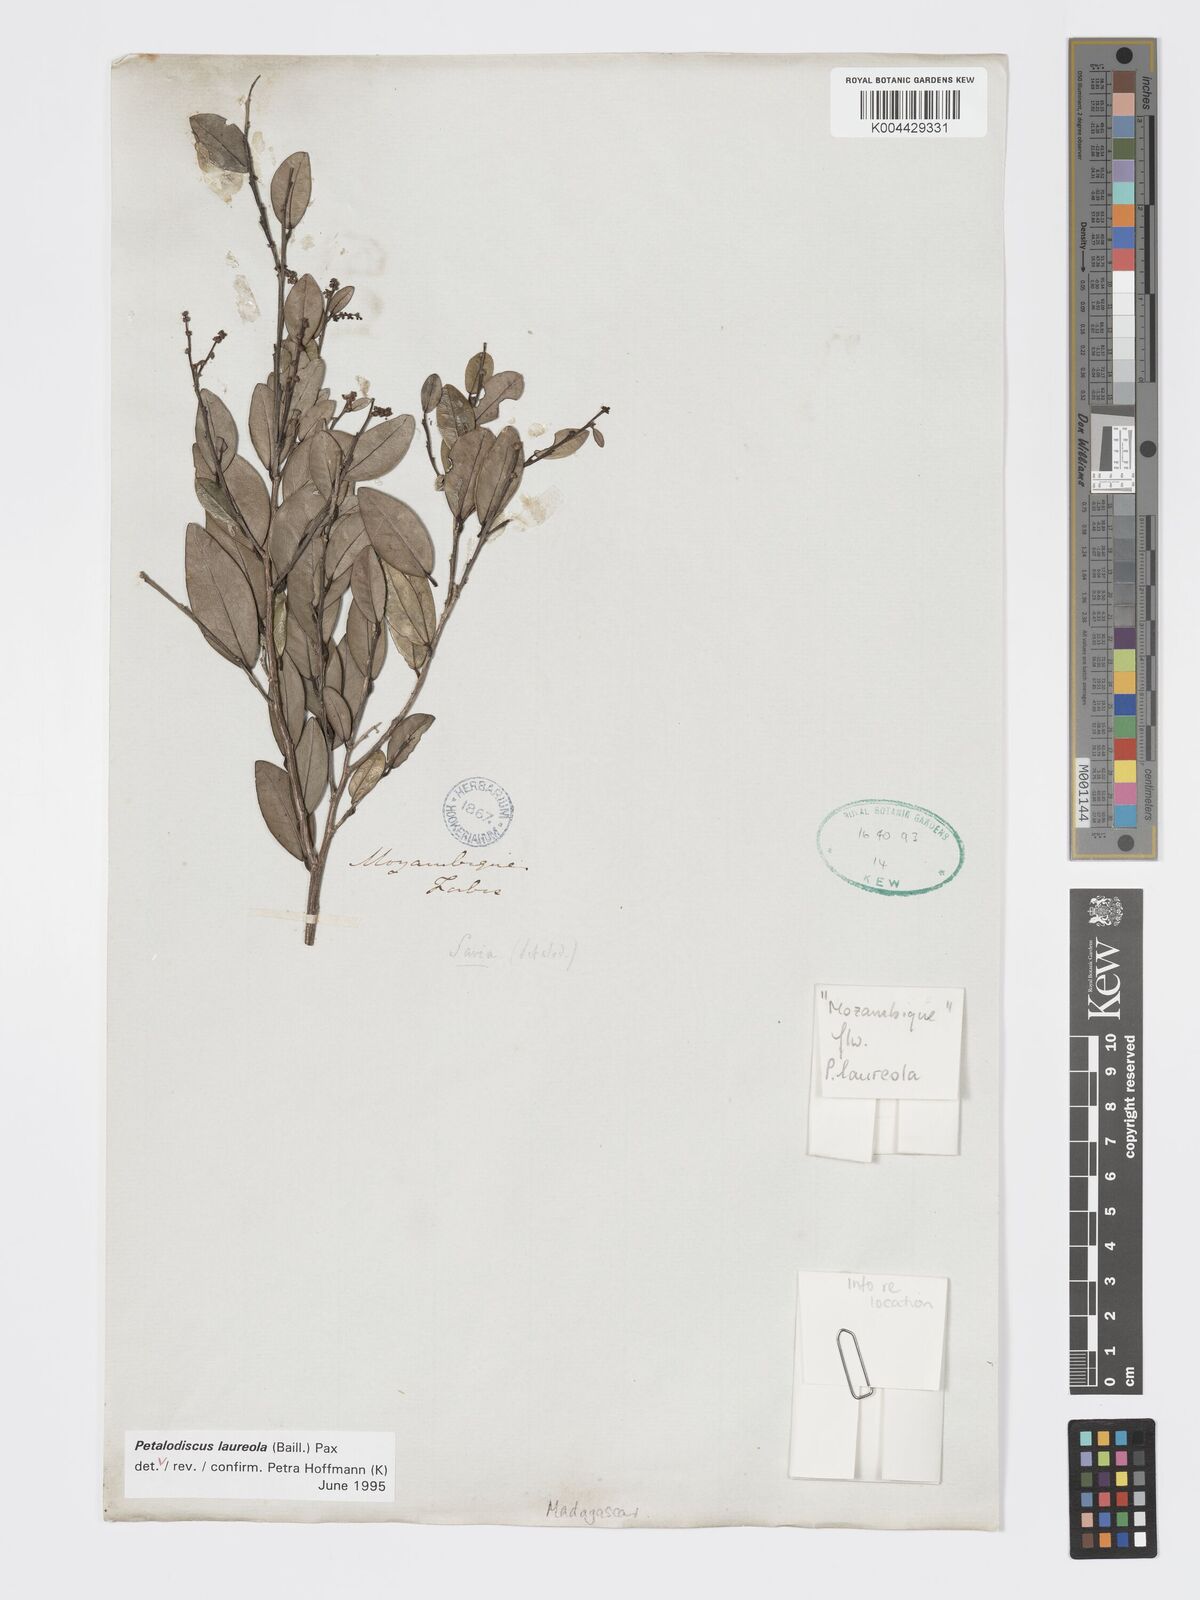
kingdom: Plantae
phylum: Tracheophyta
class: Magnoliopsida
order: Malpighiales
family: Phyllanthaceae
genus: Wielandia
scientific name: Wielandia laureola
